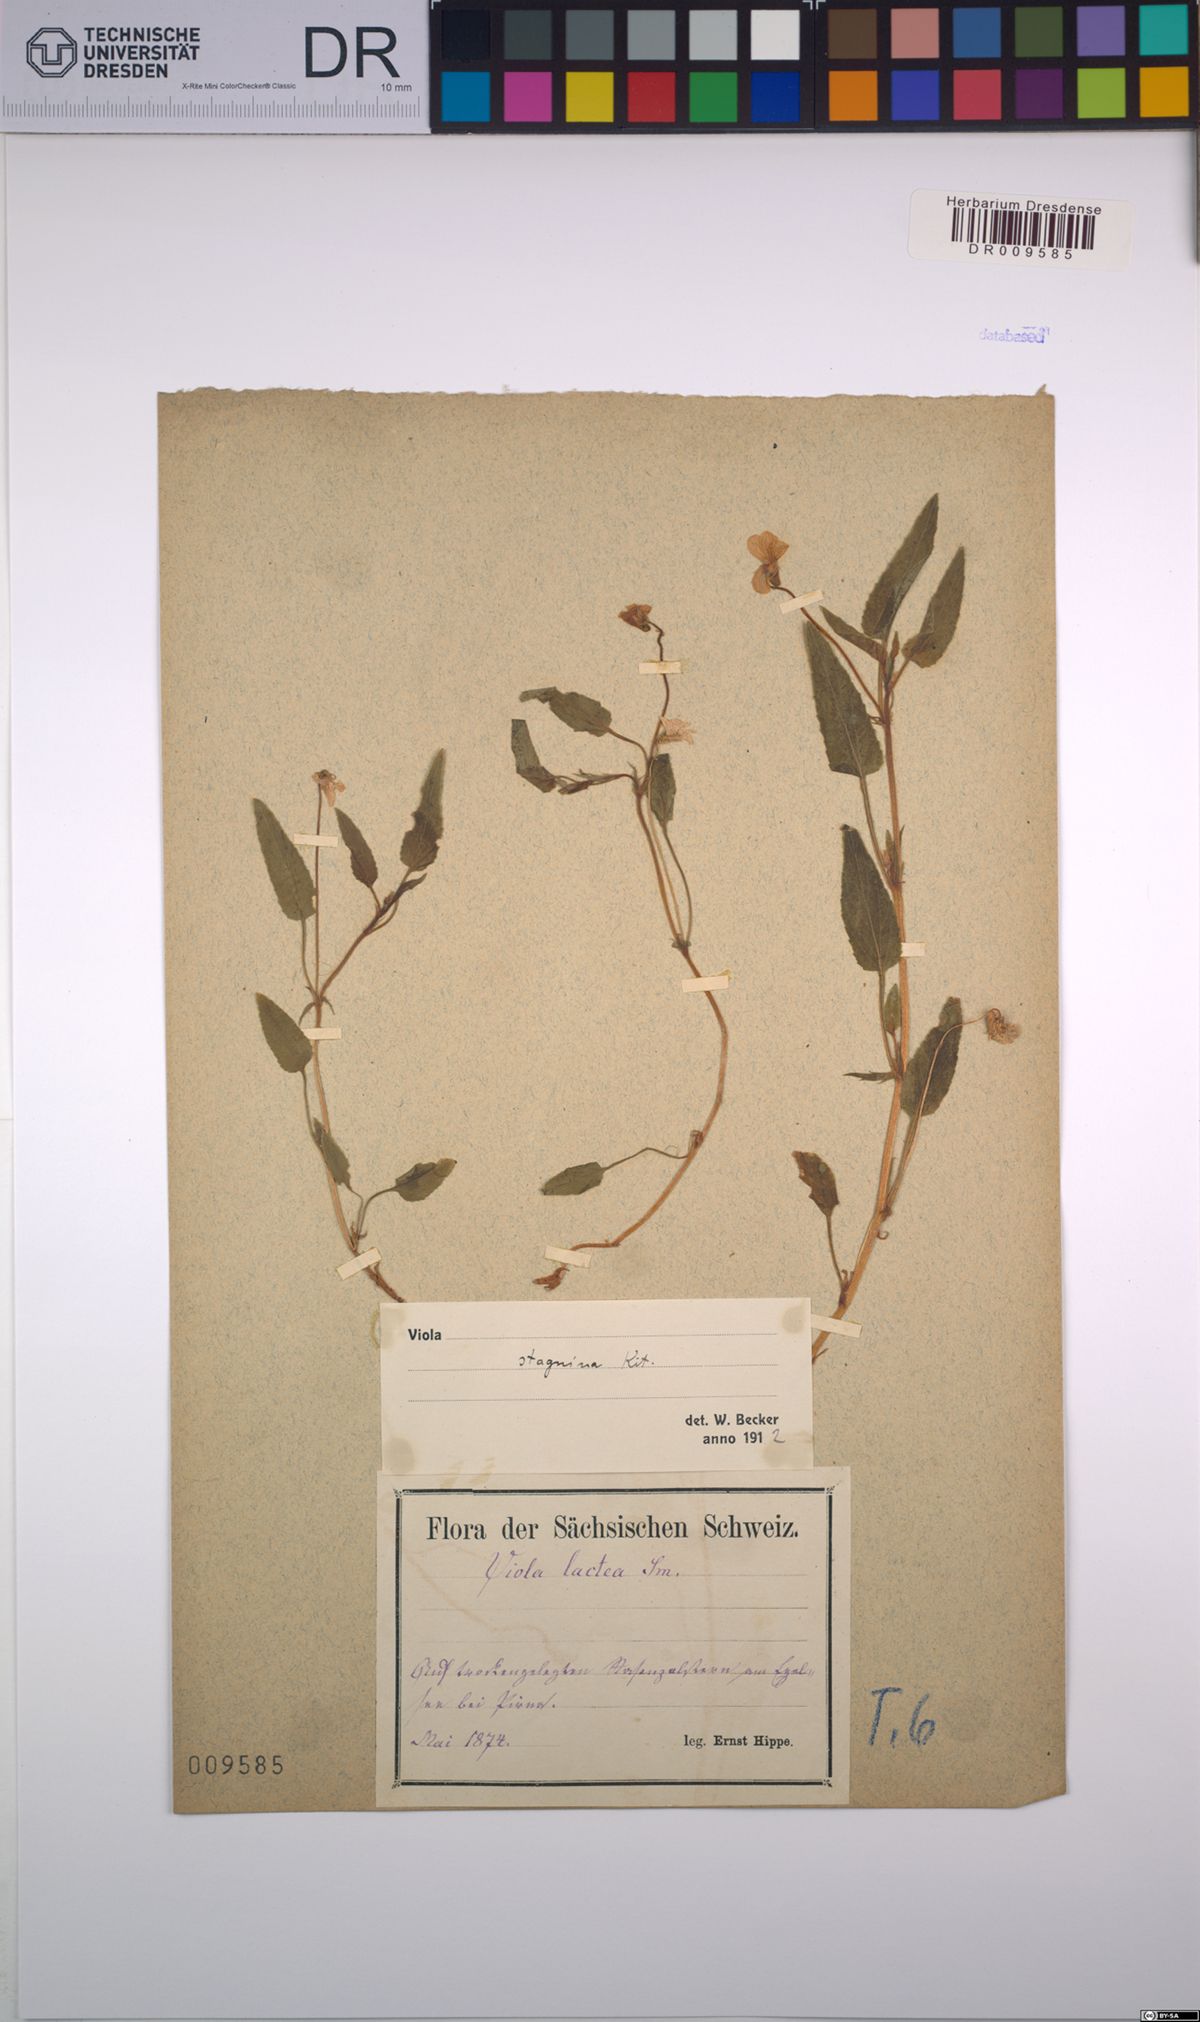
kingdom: Plantae
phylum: Tracheophyta
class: Magnoliopsida
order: Malpighiales
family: Violaceae
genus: Viola
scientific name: Viola stagnina
